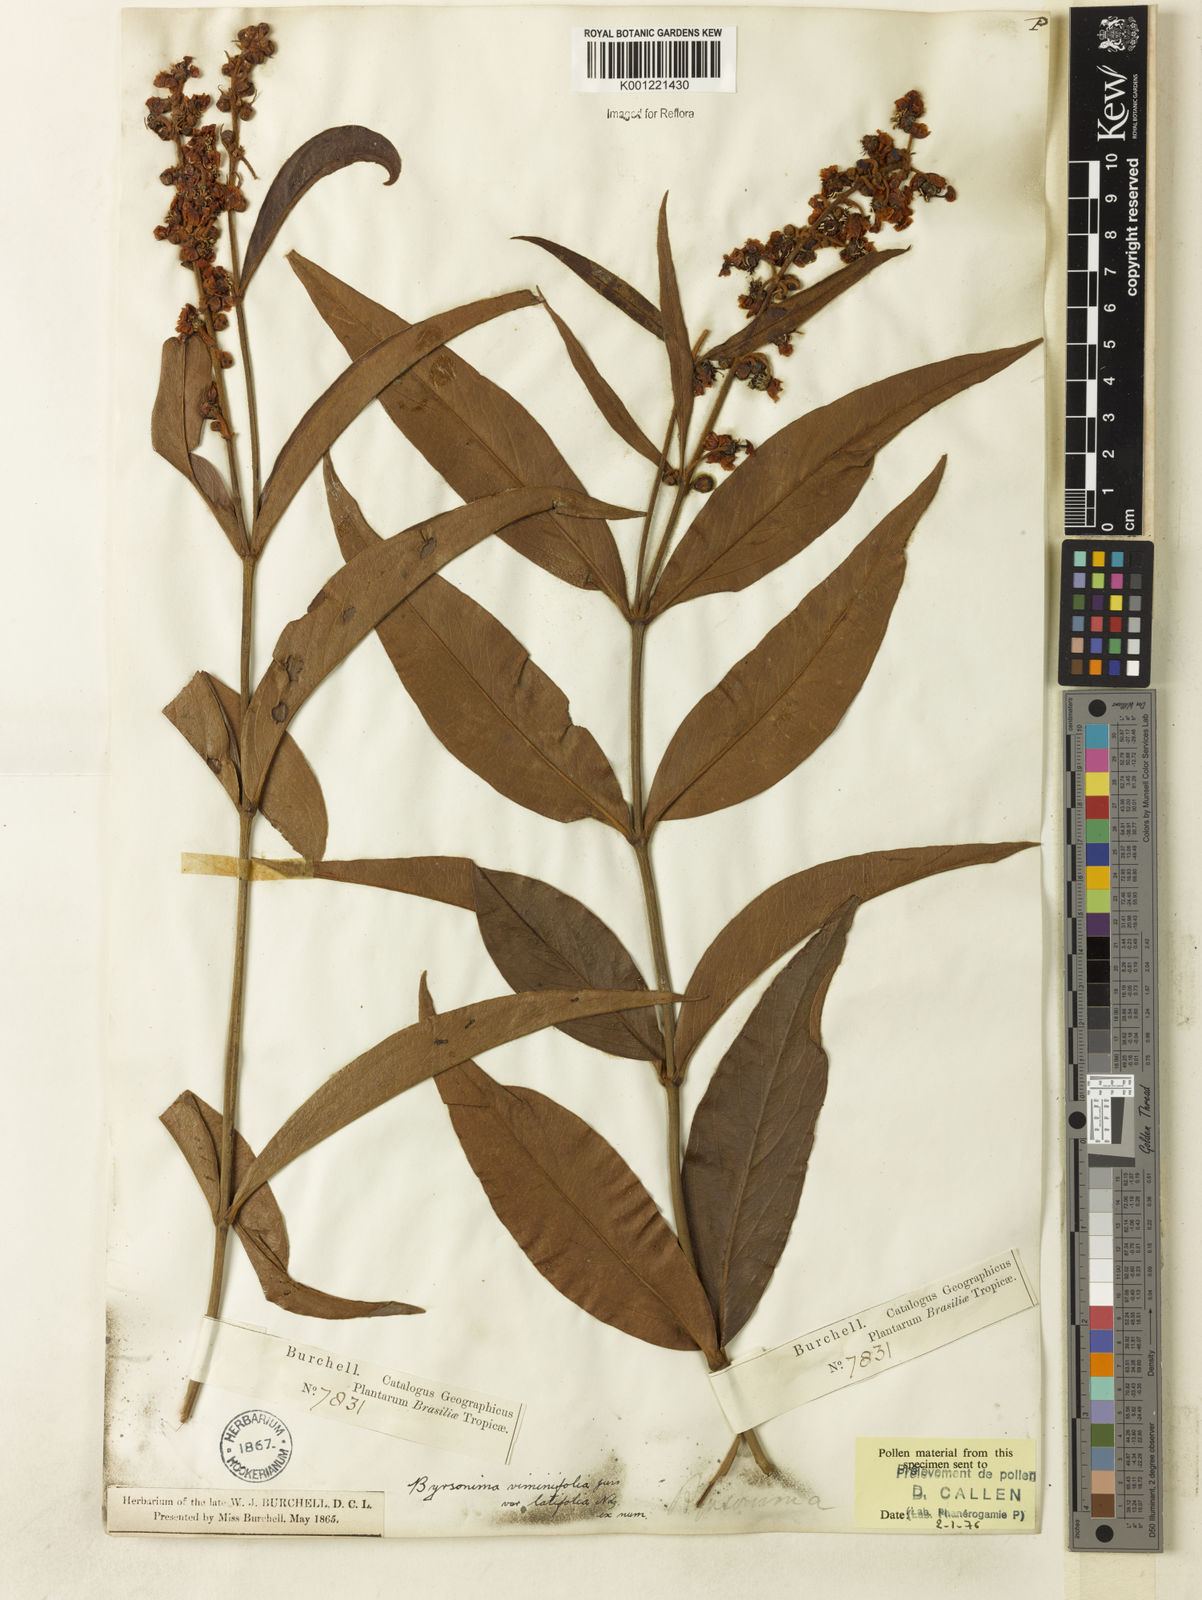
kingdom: Plantae
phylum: Tracheophyta
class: Magnoliopsida
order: Malpighiales
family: Malpighiaceae
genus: Byrsonima
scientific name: Byrsonima viminifolia
